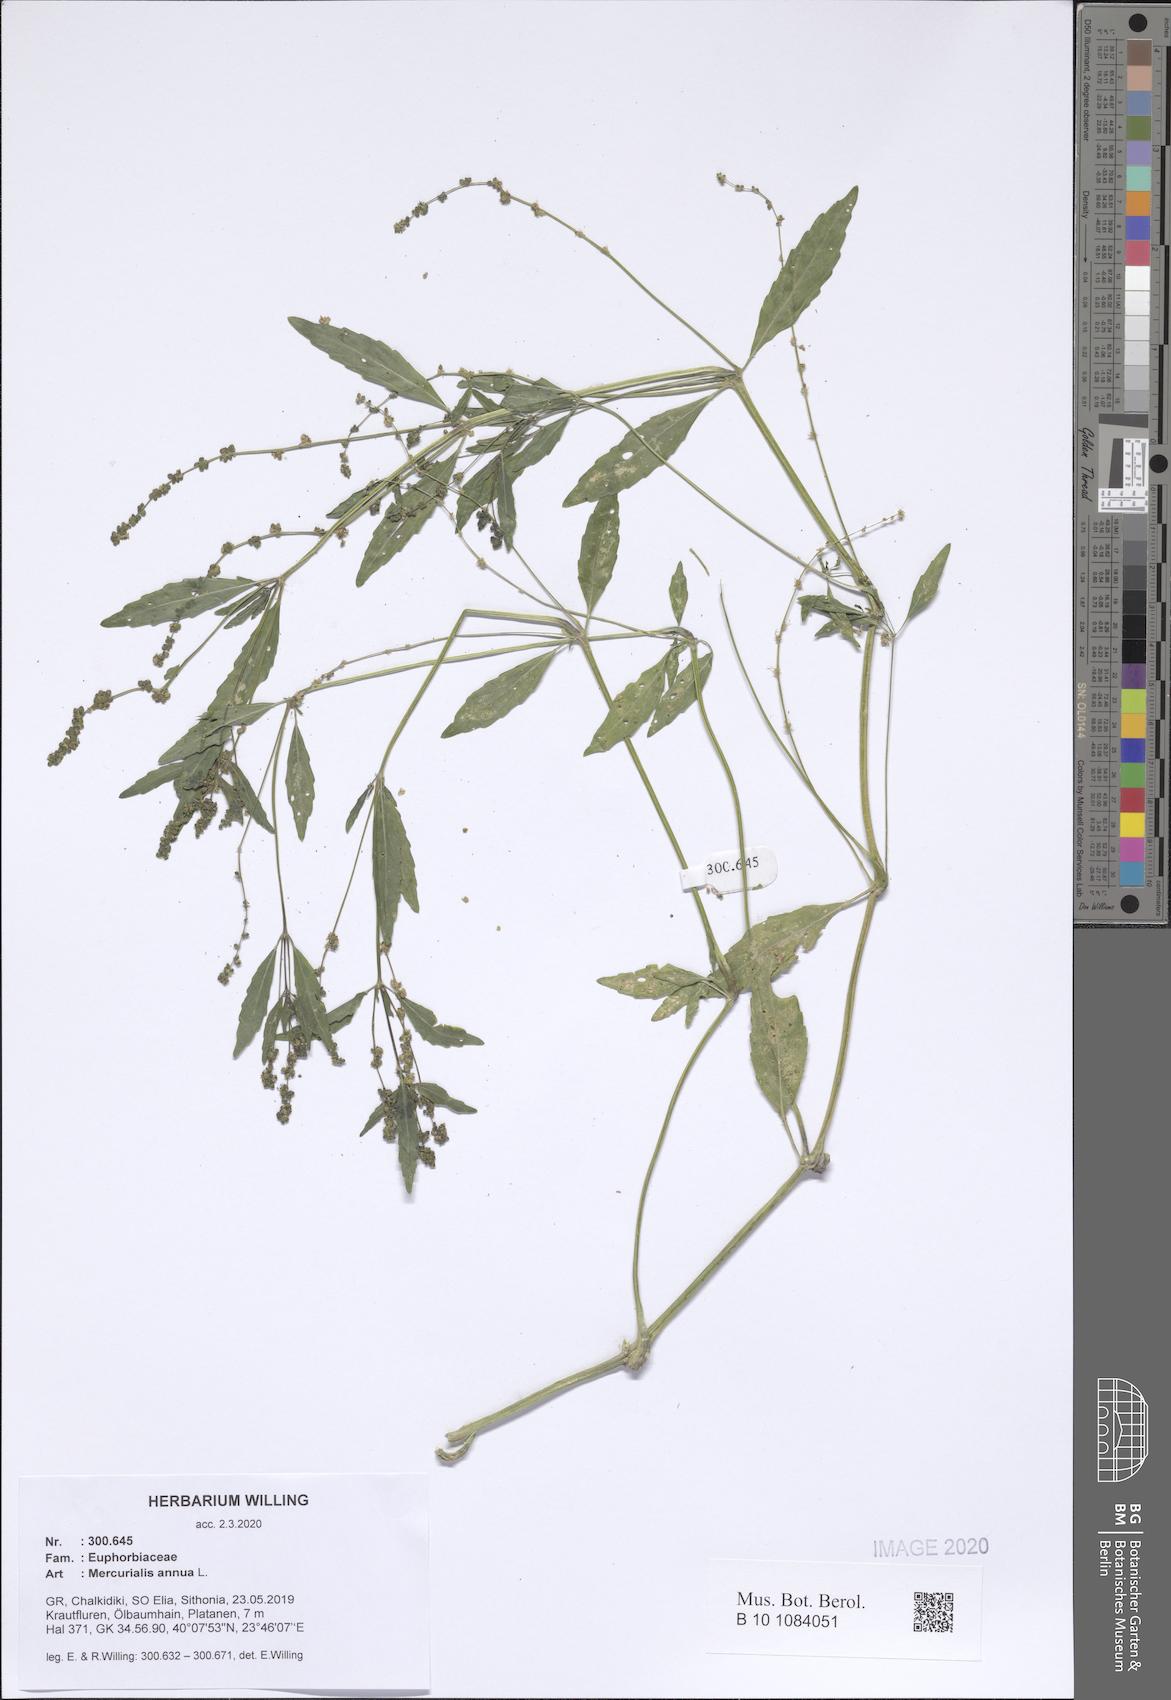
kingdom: Plantae
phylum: Tracheophyta
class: Magnoliopsida
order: Malpighiales
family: Euphorbiaceae
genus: Mercurialis
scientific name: Mercurialis annua
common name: Annual mercury
